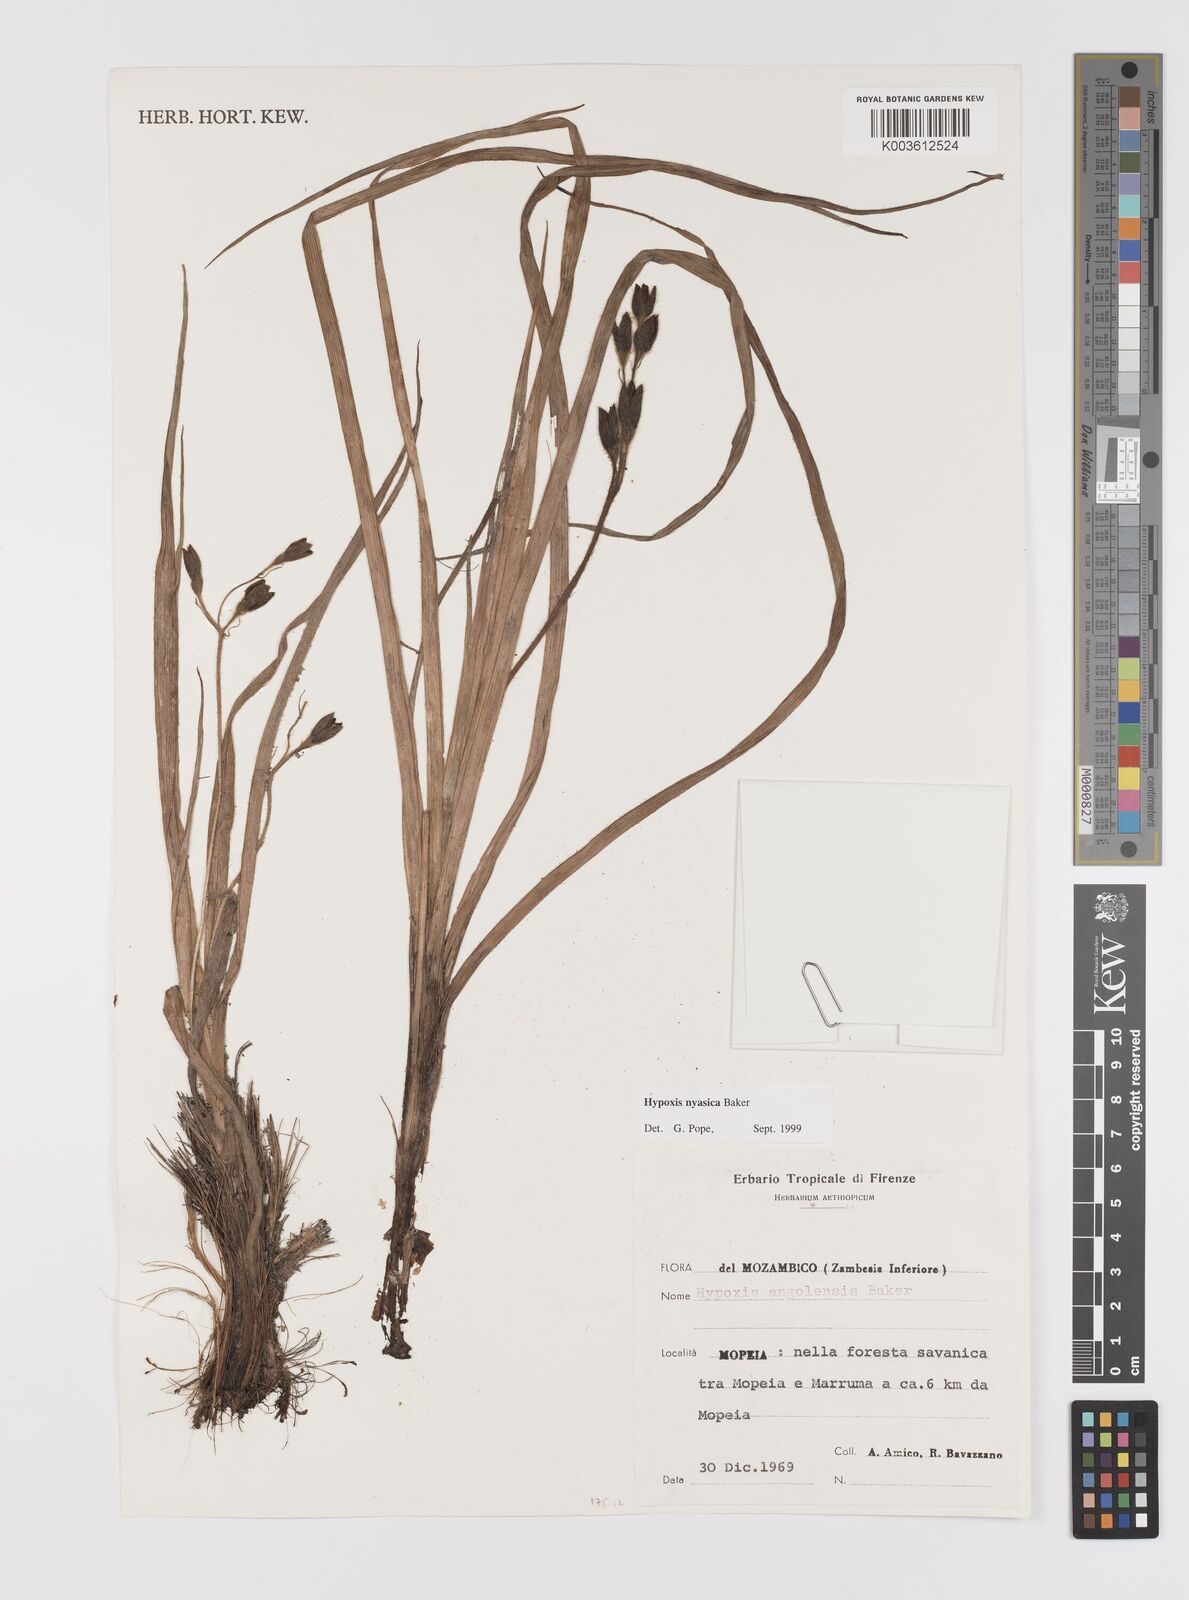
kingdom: Plantae
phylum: Tracheophyta
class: Liliopsida
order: Asparagales
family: Hypoxidaceae
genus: Hypoxis
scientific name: Hypoxis nyasica
